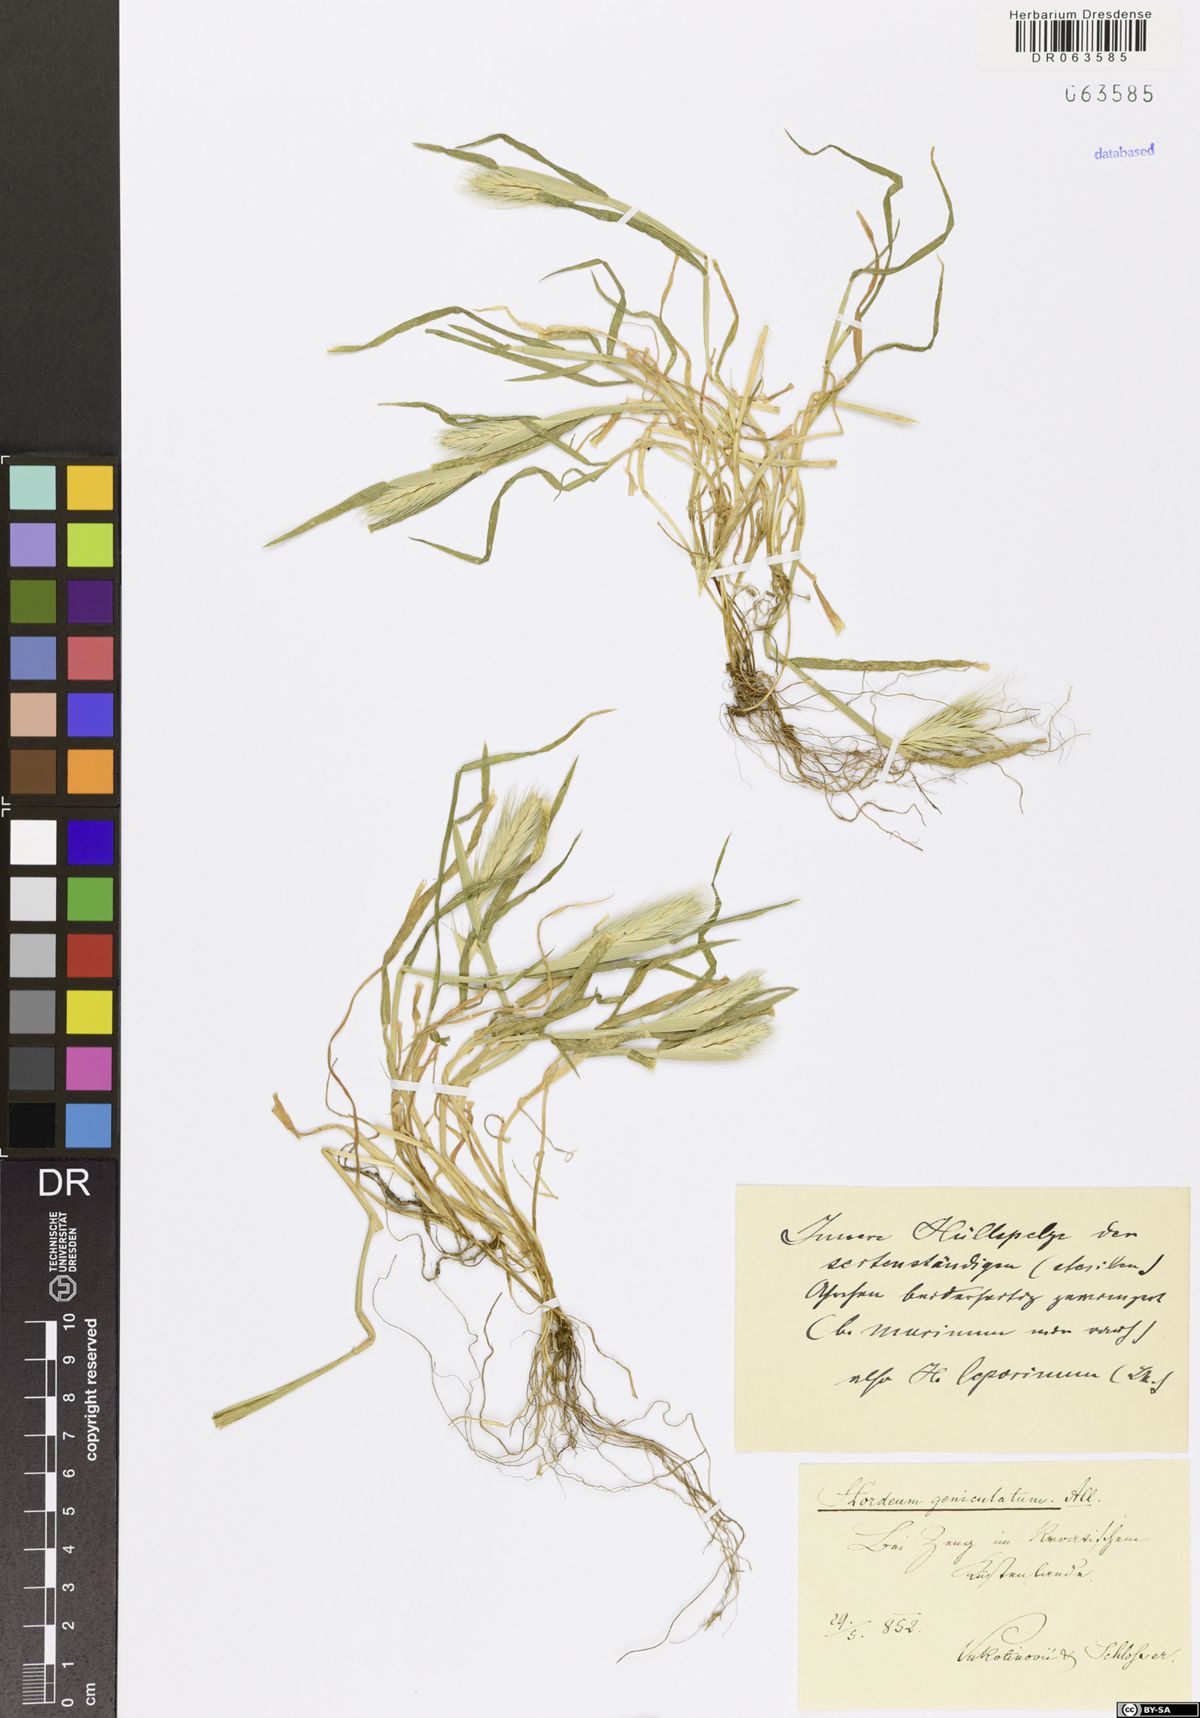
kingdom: Plantae
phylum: Tracheophyta
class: Liliopsida
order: Poales
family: Poaceae
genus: Hordeum
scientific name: Hordeum marinum
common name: Sea barley
